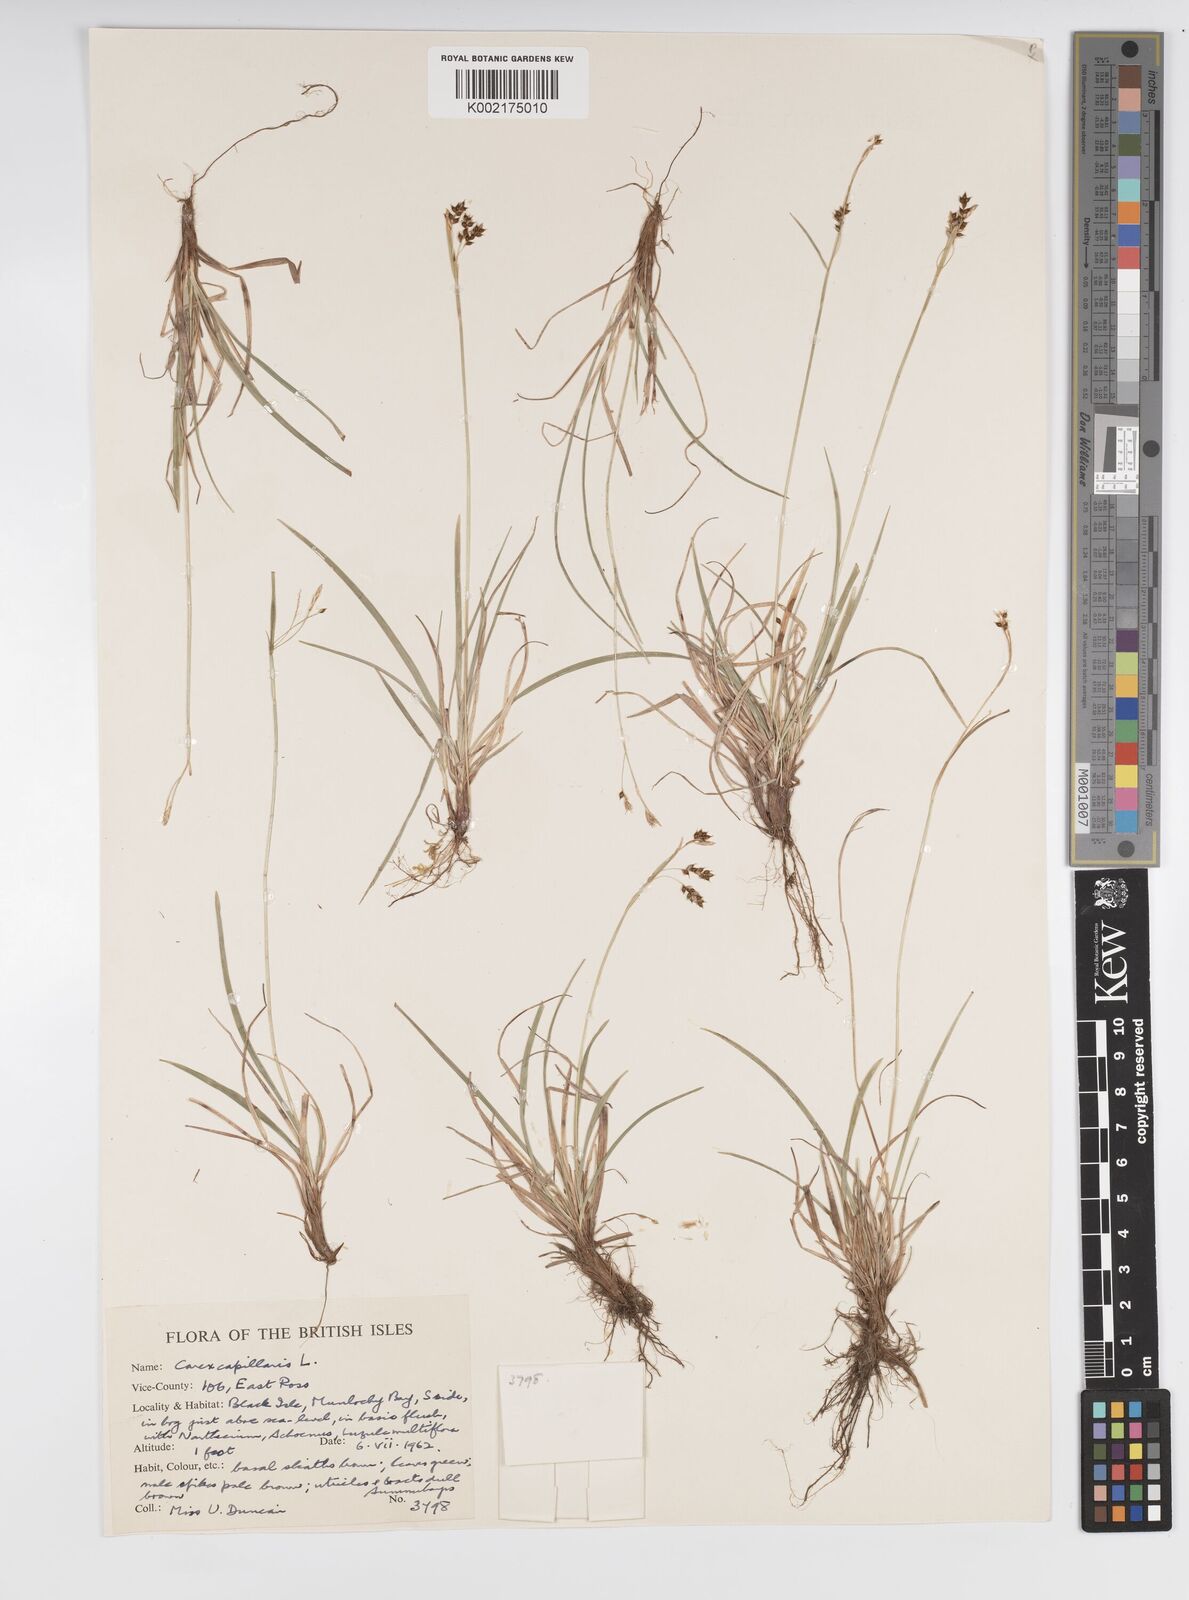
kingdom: Plantae
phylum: Tracheophyta
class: Liliopsida
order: Poales
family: Cyperaceae
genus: Carex
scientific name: Carex capillaris
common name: Hair sedge
